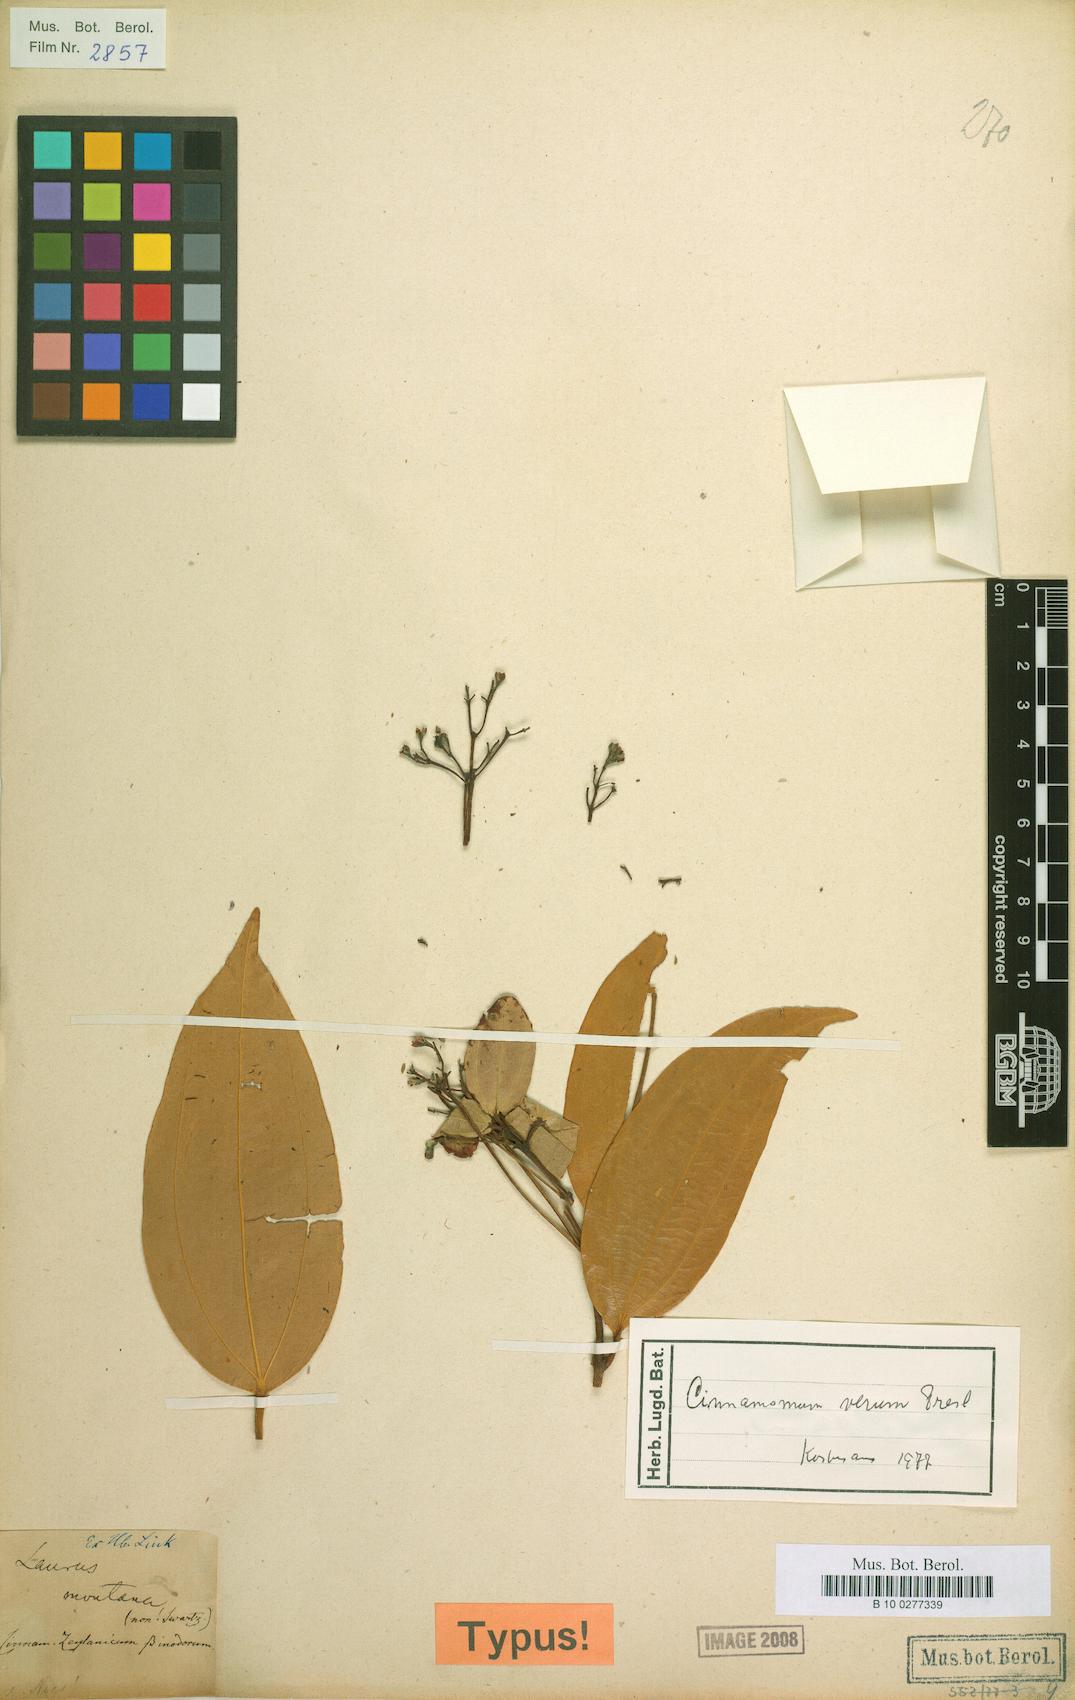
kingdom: Plantae
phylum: Tracheophyta
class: Magnoliopsida
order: Laurales
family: Lauraceae
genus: Cinnamomum
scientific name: Cinnamomum verum
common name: Cinnamon
